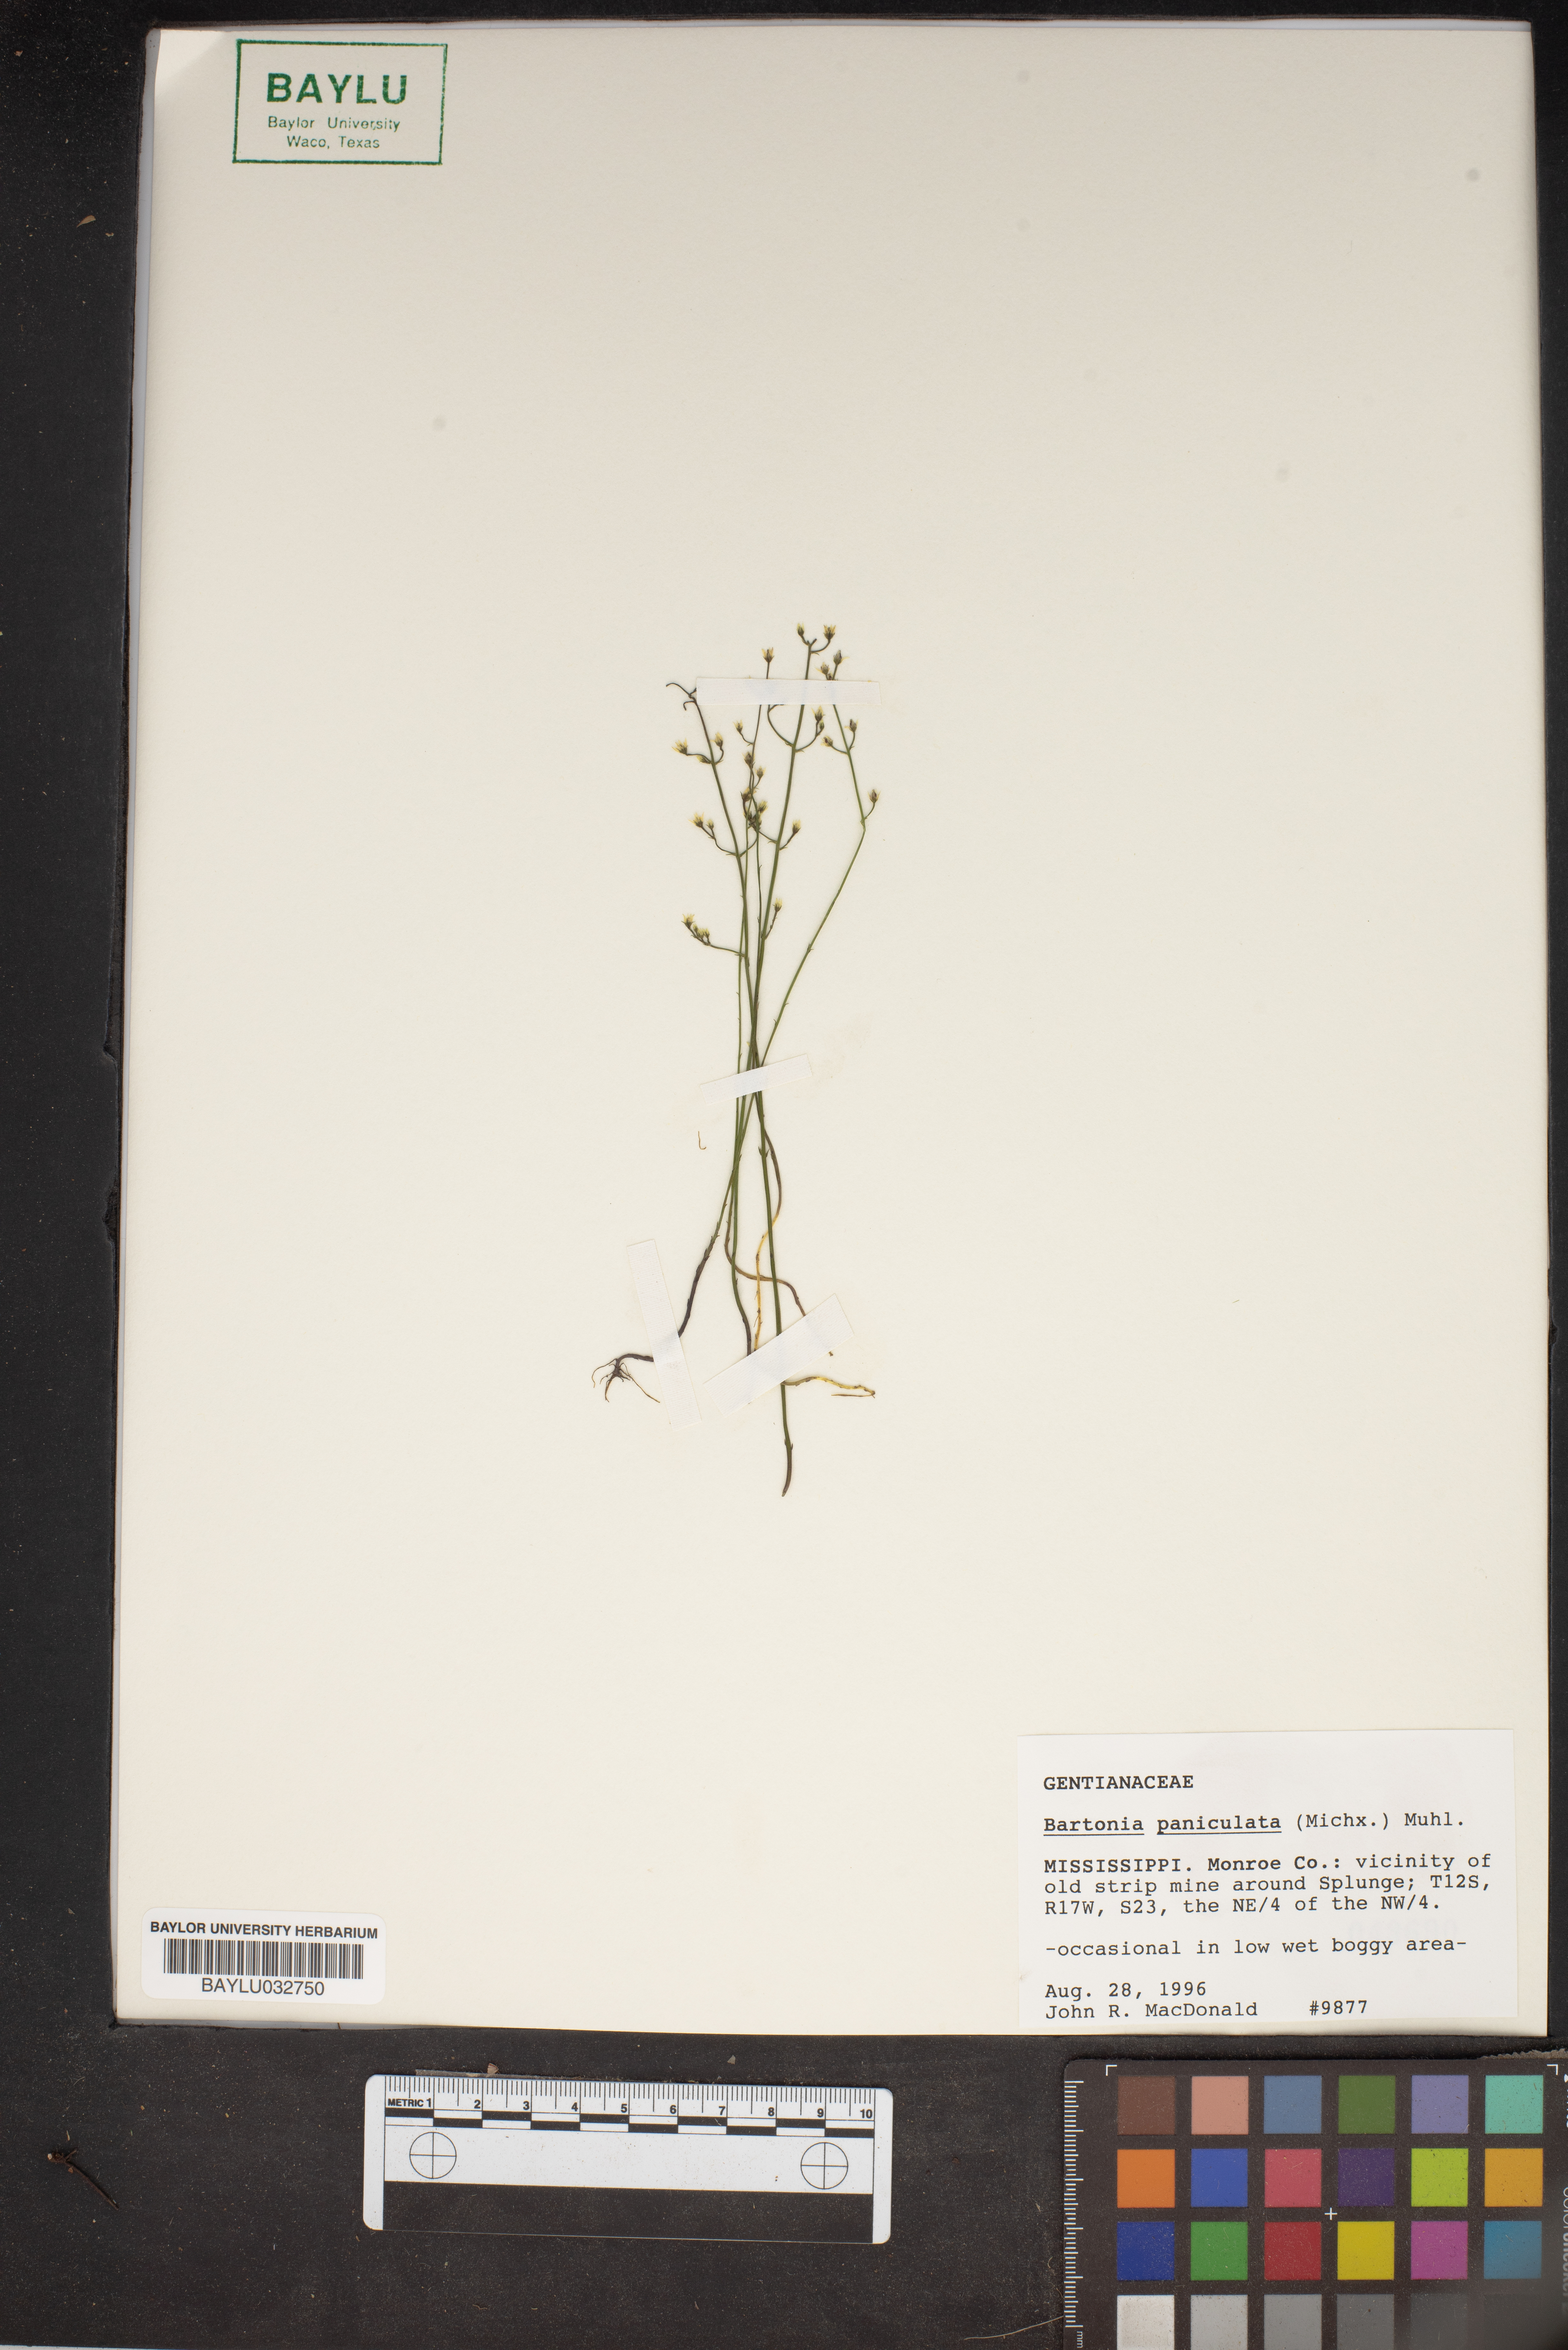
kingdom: Plantae
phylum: Tracheophyta
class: Magnoliopsida
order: Gentianales
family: Gentianaceae
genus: Bartonia
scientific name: Bartonia paniculata
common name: Branched bartonia
